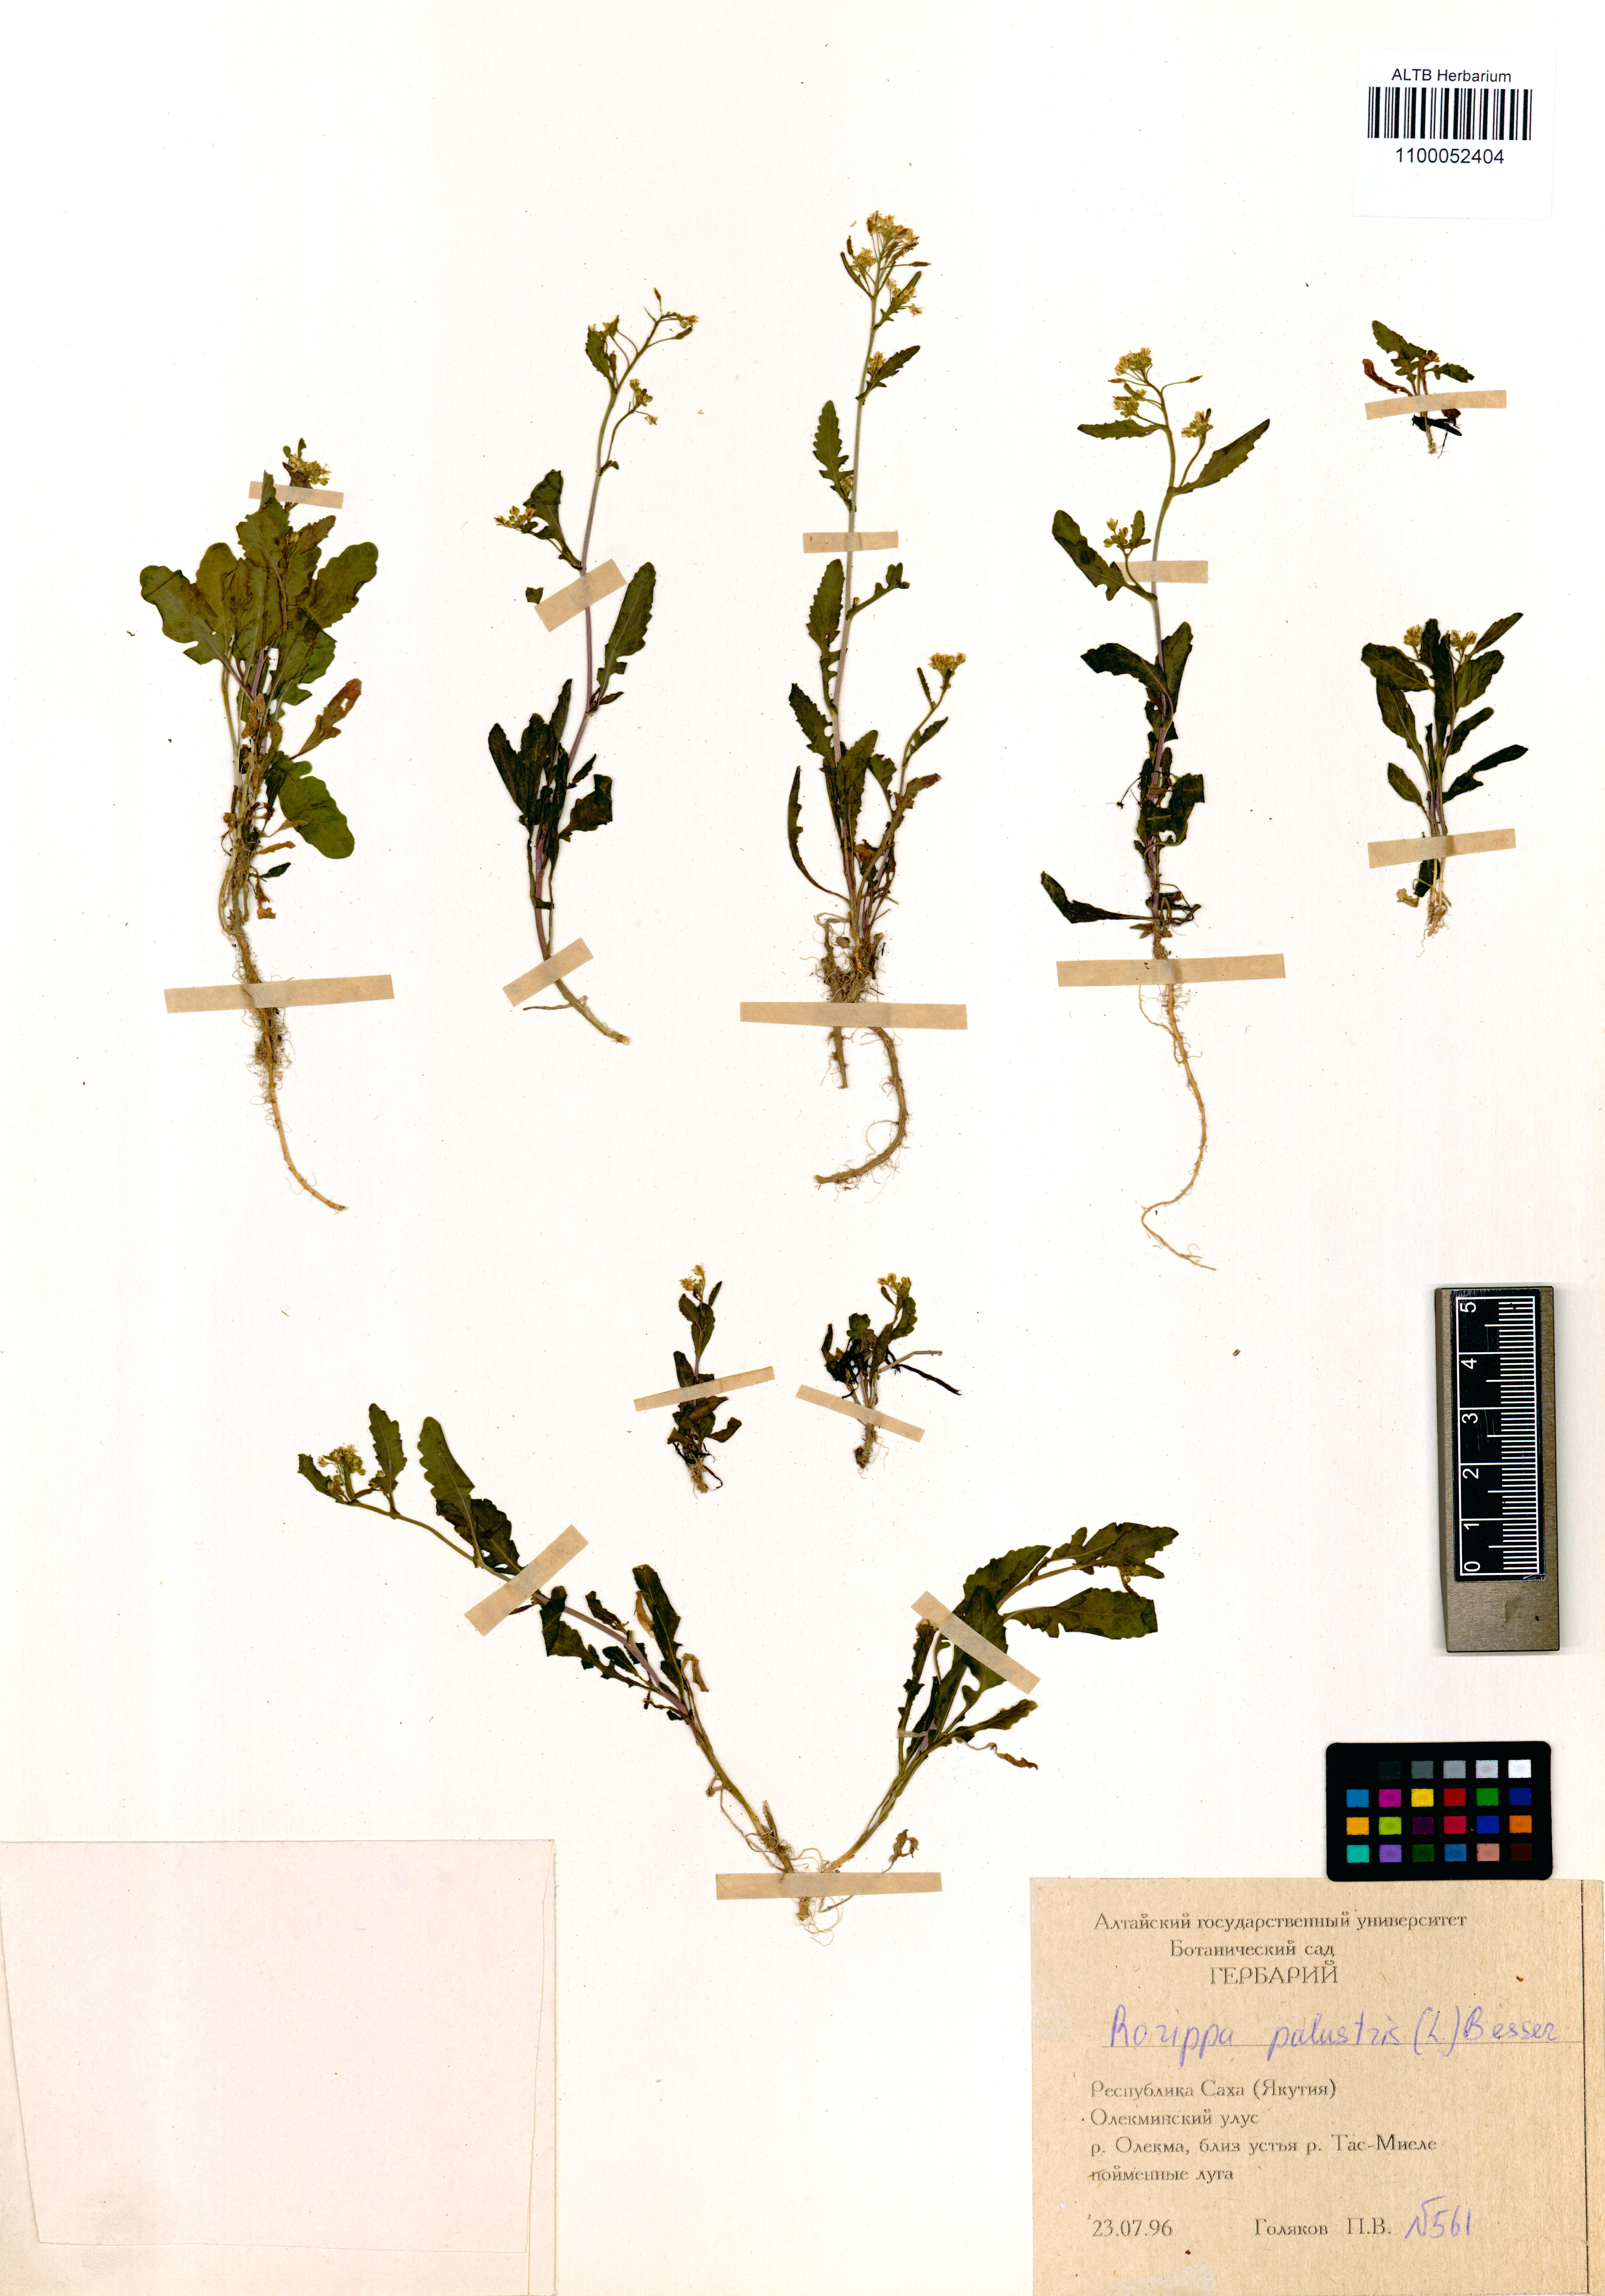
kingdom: Plantae
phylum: Tracheophyta
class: Magnoliopsida
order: Brassicales
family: Brassicaceae
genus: Rorippa
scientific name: Rorippa palustris
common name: Marsh yellow-cress
